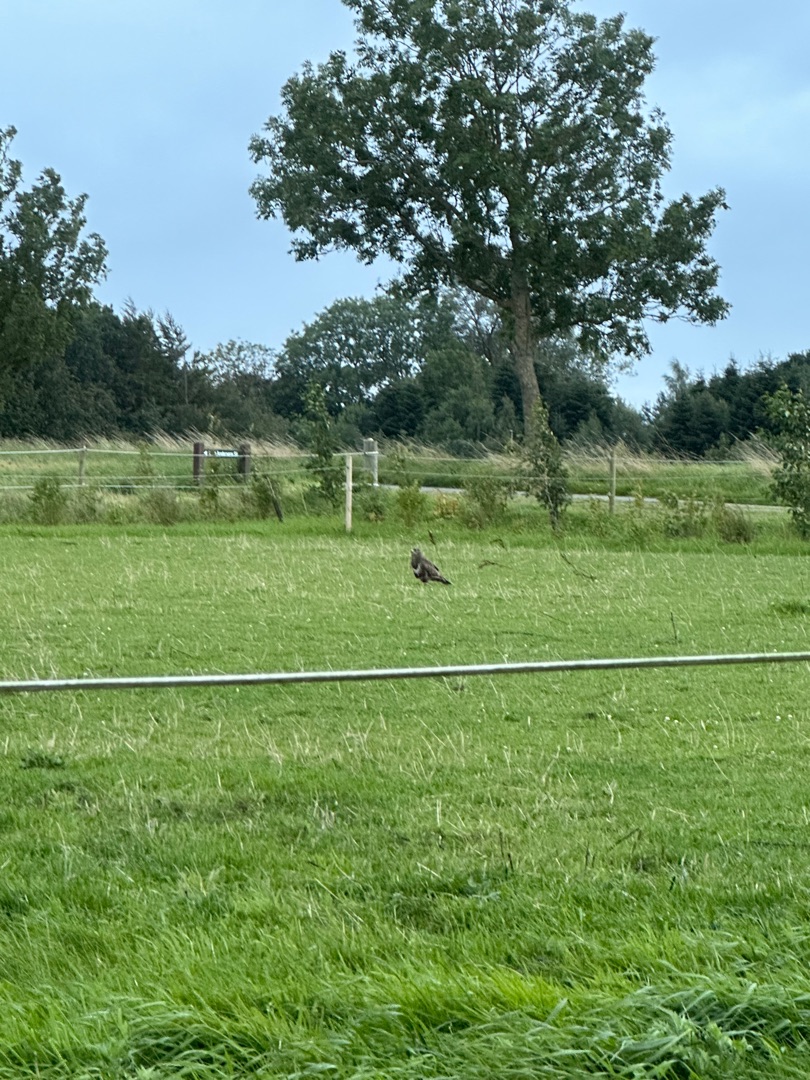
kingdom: Animalia
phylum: Chordata
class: Aves
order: Accipitriformes
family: Accipitridae
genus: Buteo
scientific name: Buteo buteo
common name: Musvåge
